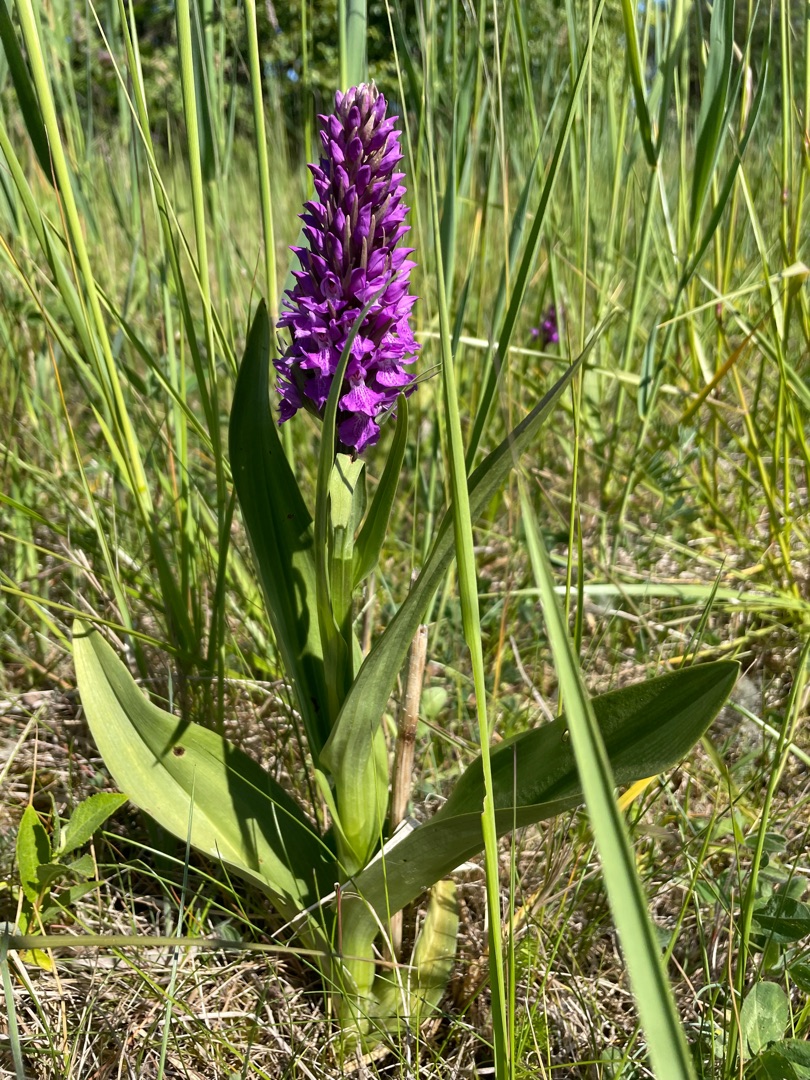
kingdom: Plantae
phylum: Tracheophyta
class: Liliopsida
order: Asparagales
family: Orchidaceae
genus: Dactylorhiza
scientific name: Dactylorhiza majalis
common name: Priklæbet gøgeurt
